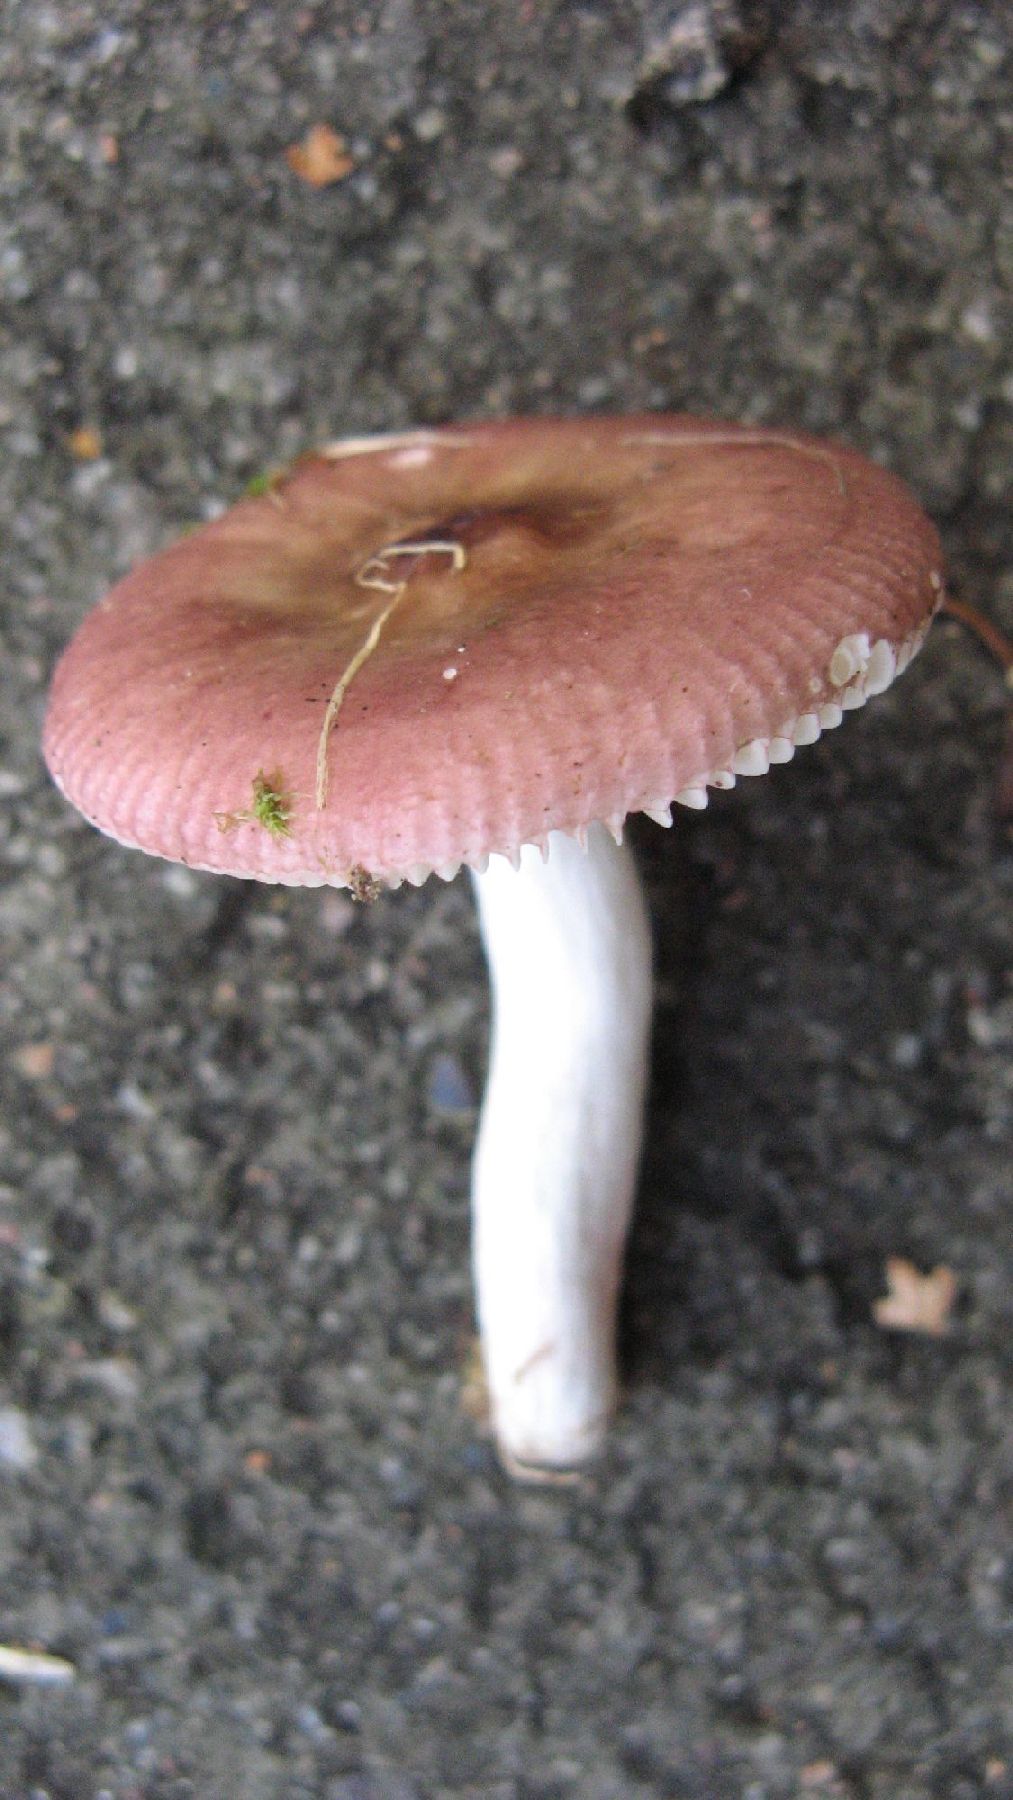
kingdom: Fungi
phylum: Basidiomycota
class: Agaricomycetes
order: Russulales
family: Russulaceae
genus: Russula
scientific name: Russula versicolor
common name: foranderlig skørhat
